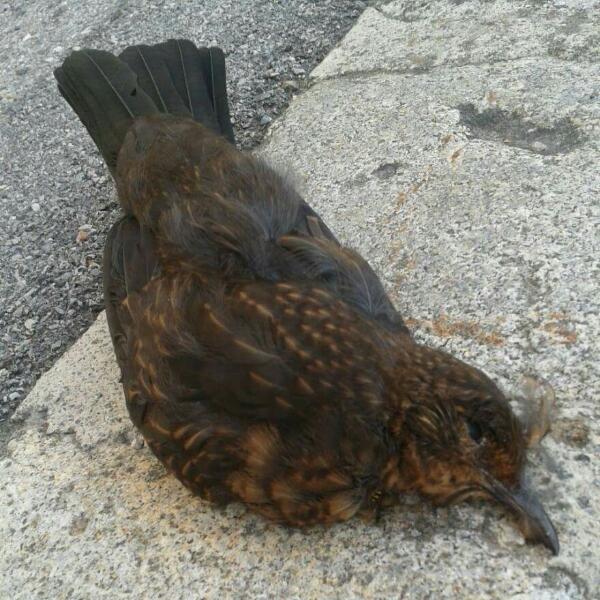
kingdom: Animalia
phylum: Chordata
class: Aves
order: Passeriformes
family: Turdidae
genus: Turdus
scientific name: Turdus merula
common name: Common blackbird
